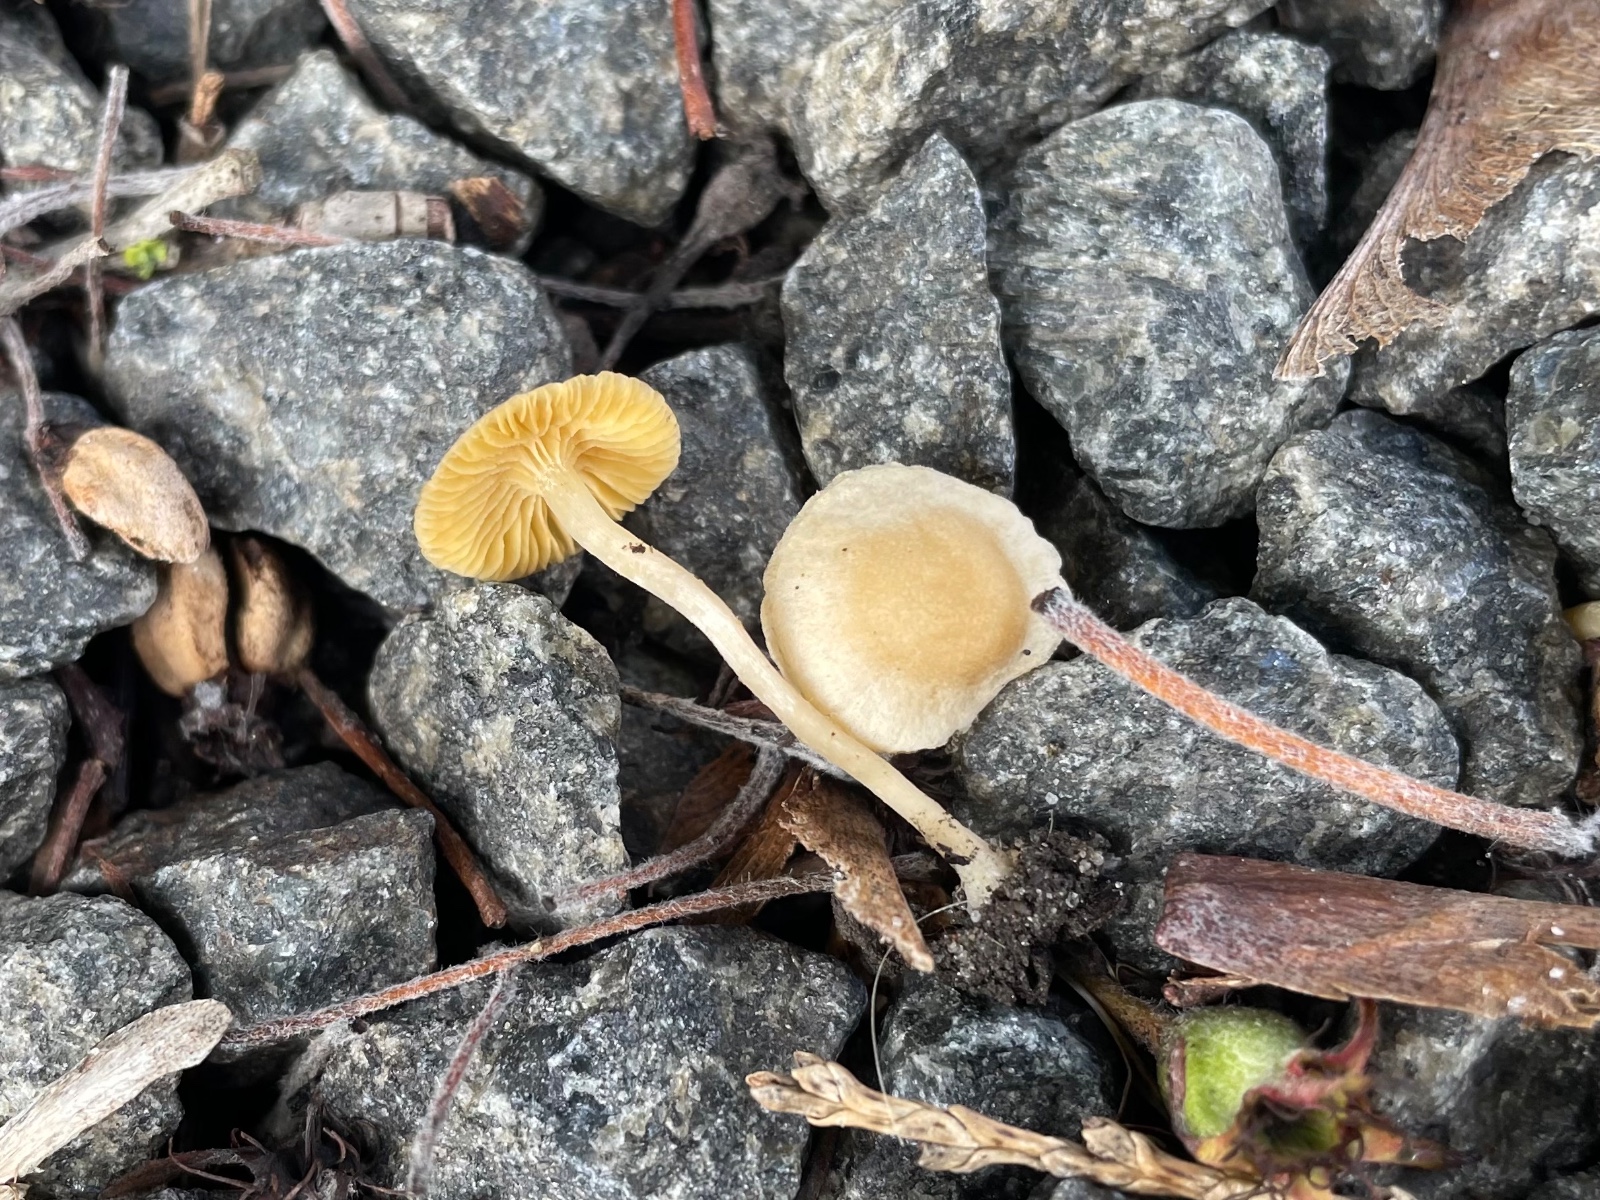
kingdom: Fungi
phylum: Basidiomycota
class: Agaricomycetes
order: Agaricales
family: Tubariaceae
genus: Tubaria
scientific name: Tubaria dispersa
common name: tjørne-fnughat
